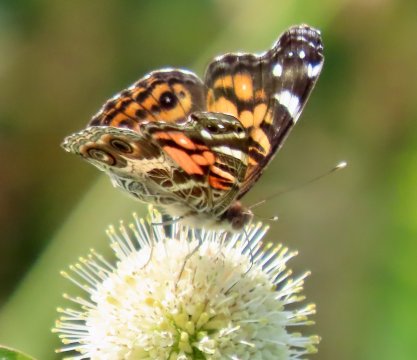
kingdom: Animalia
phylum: Arthropoda
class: Insecta
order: Lepidoptera
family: Nymphalidae
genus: Vanessa
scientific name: Vanessa virginiensis
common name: American Lady
